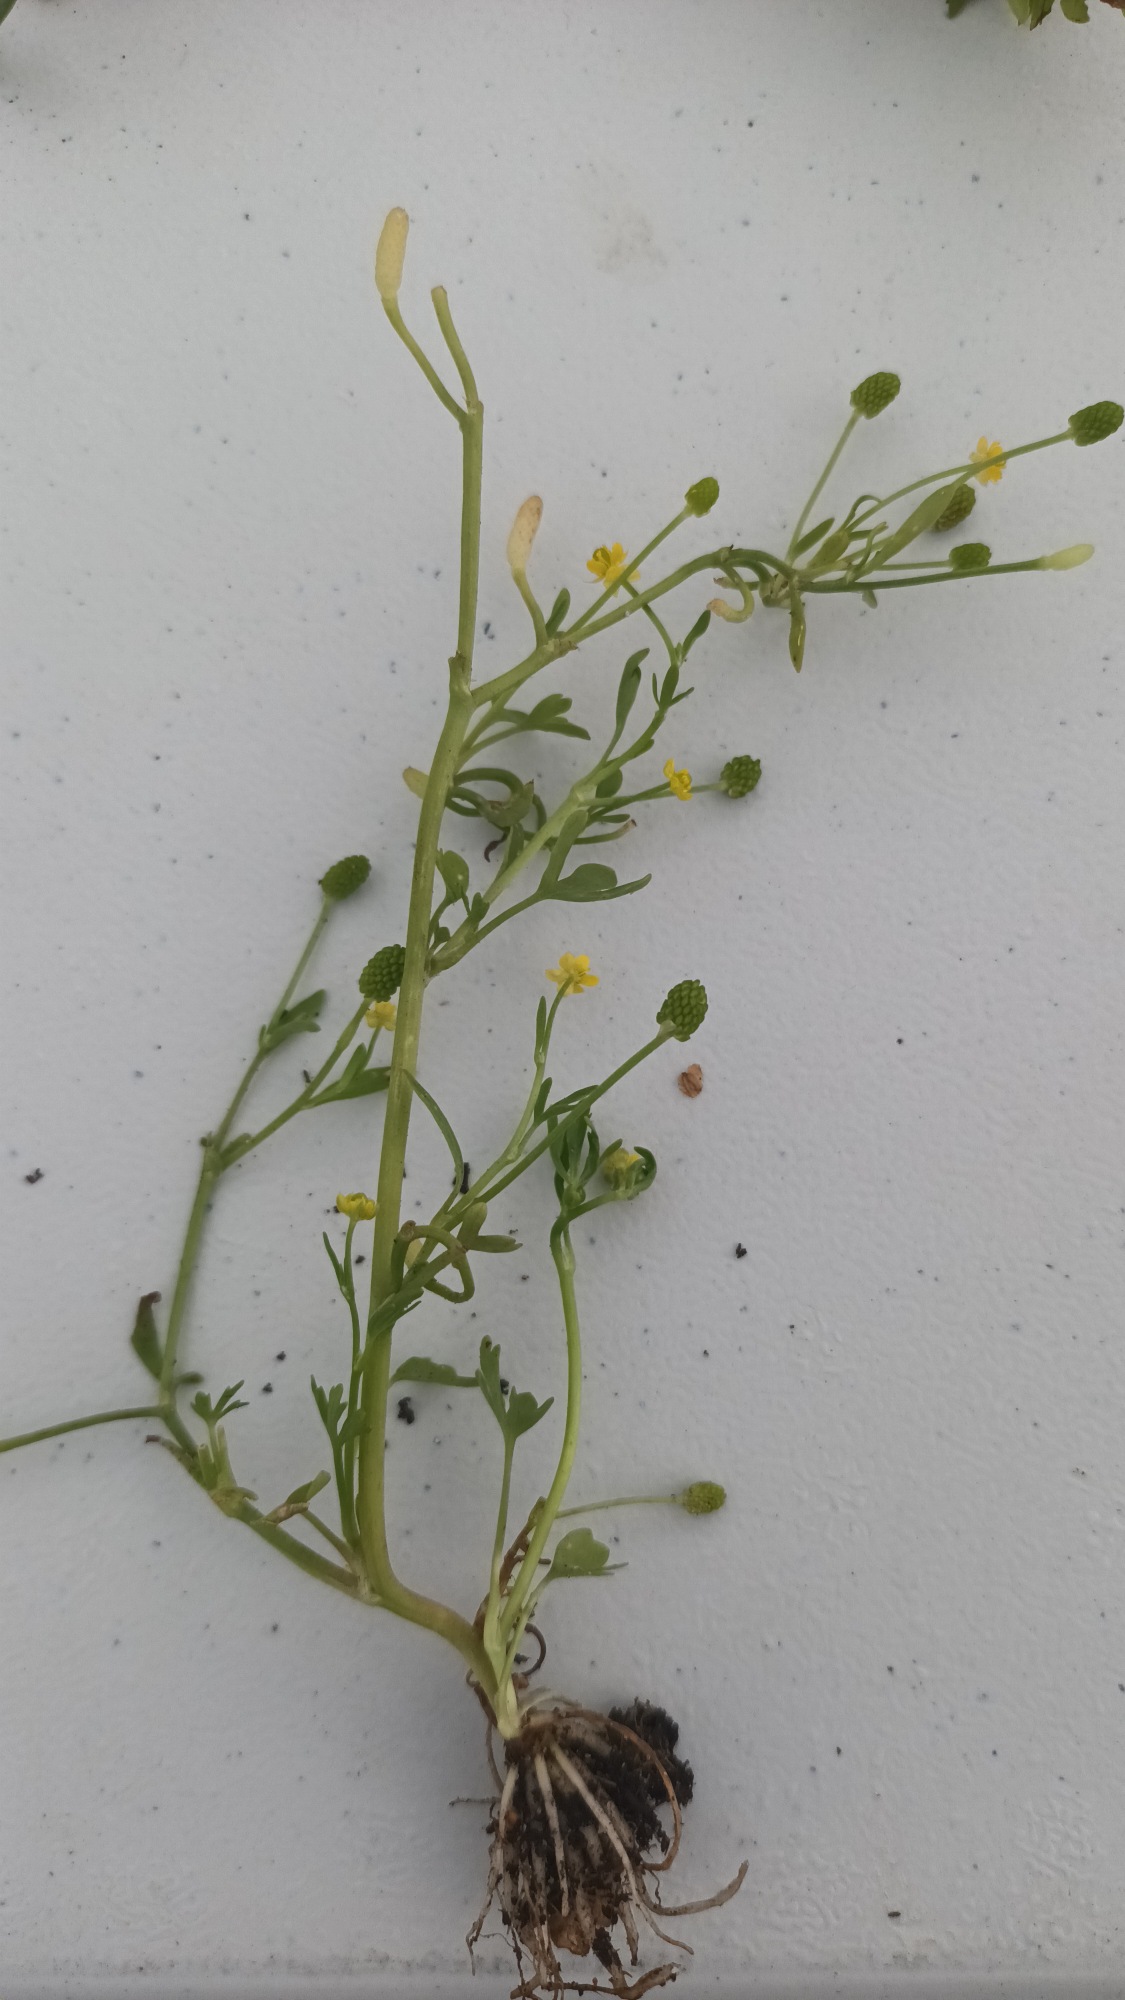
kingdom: Plantae
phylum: Tracheophyta
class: Magnoliopsida
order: Ranunculales
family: Ranunculaceae
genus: Ranunculus
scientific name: Ranunculus sceleratus
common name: Tigger-ranunkel
